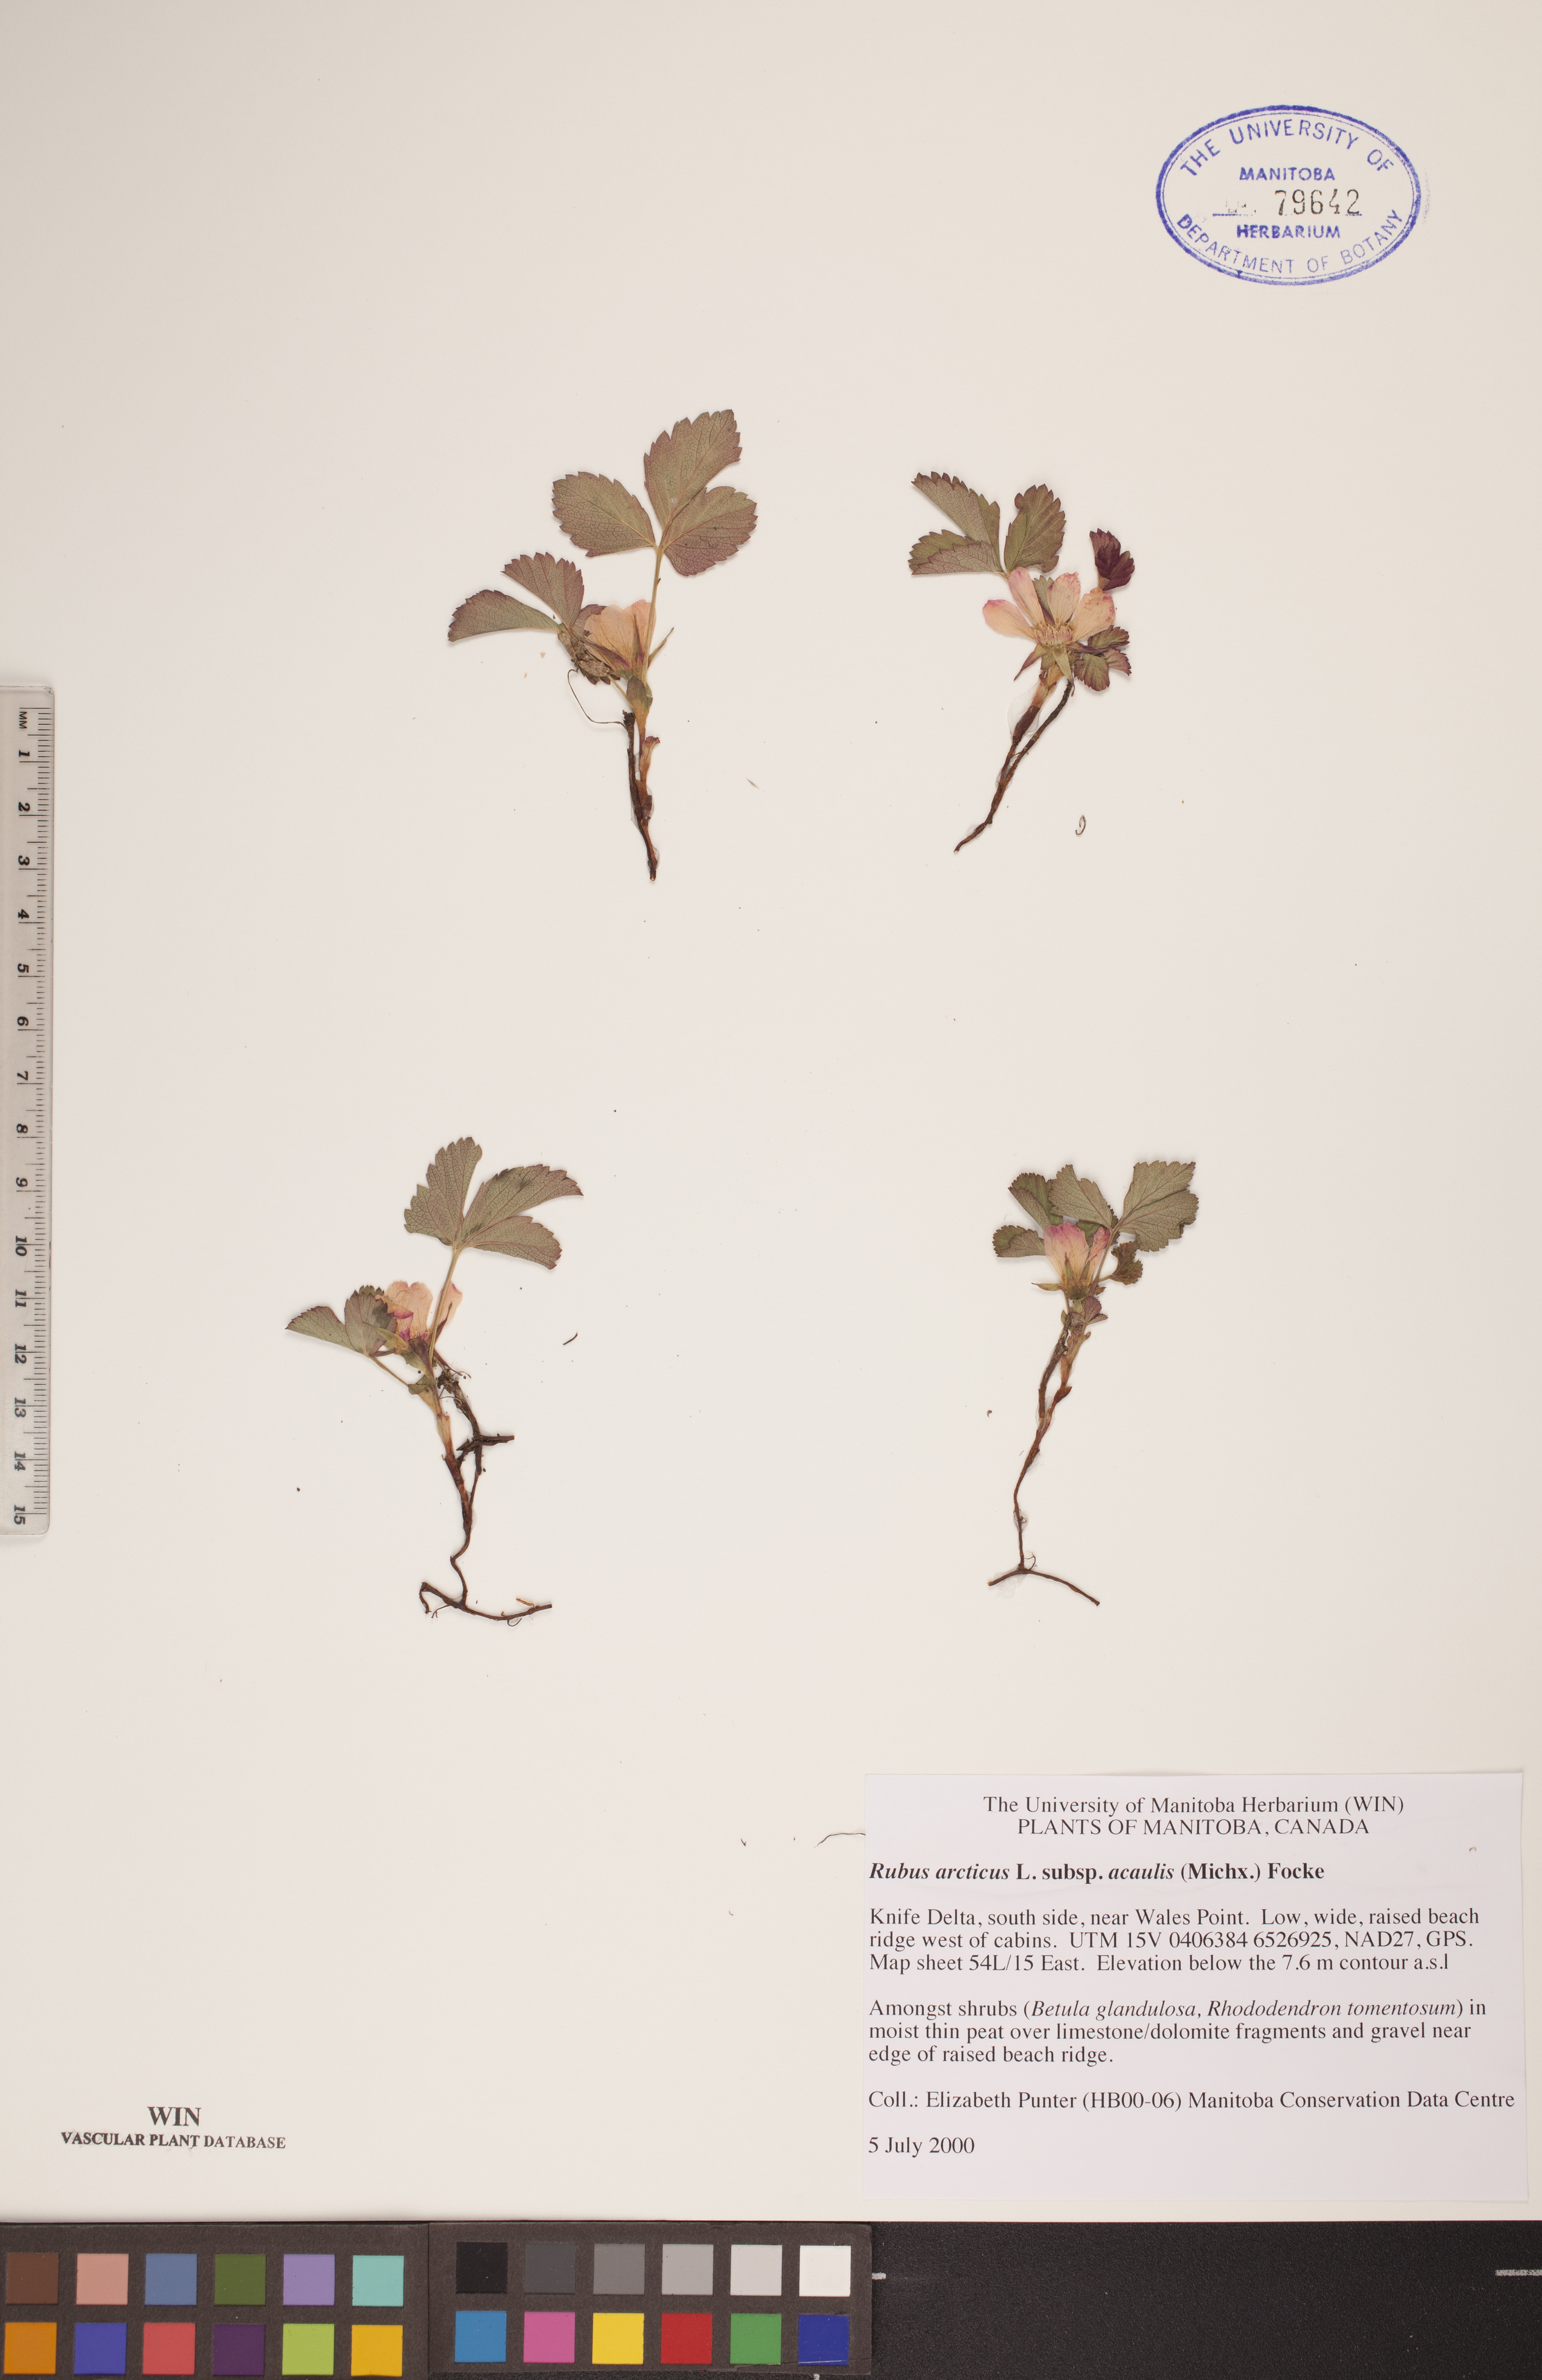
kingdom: Plantae
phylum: Tracheophyta
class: Magnoliopsida
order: Rosales
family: Rosaceae
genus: Rubus
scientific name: Rubus arcticus
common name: Arctic bramble
